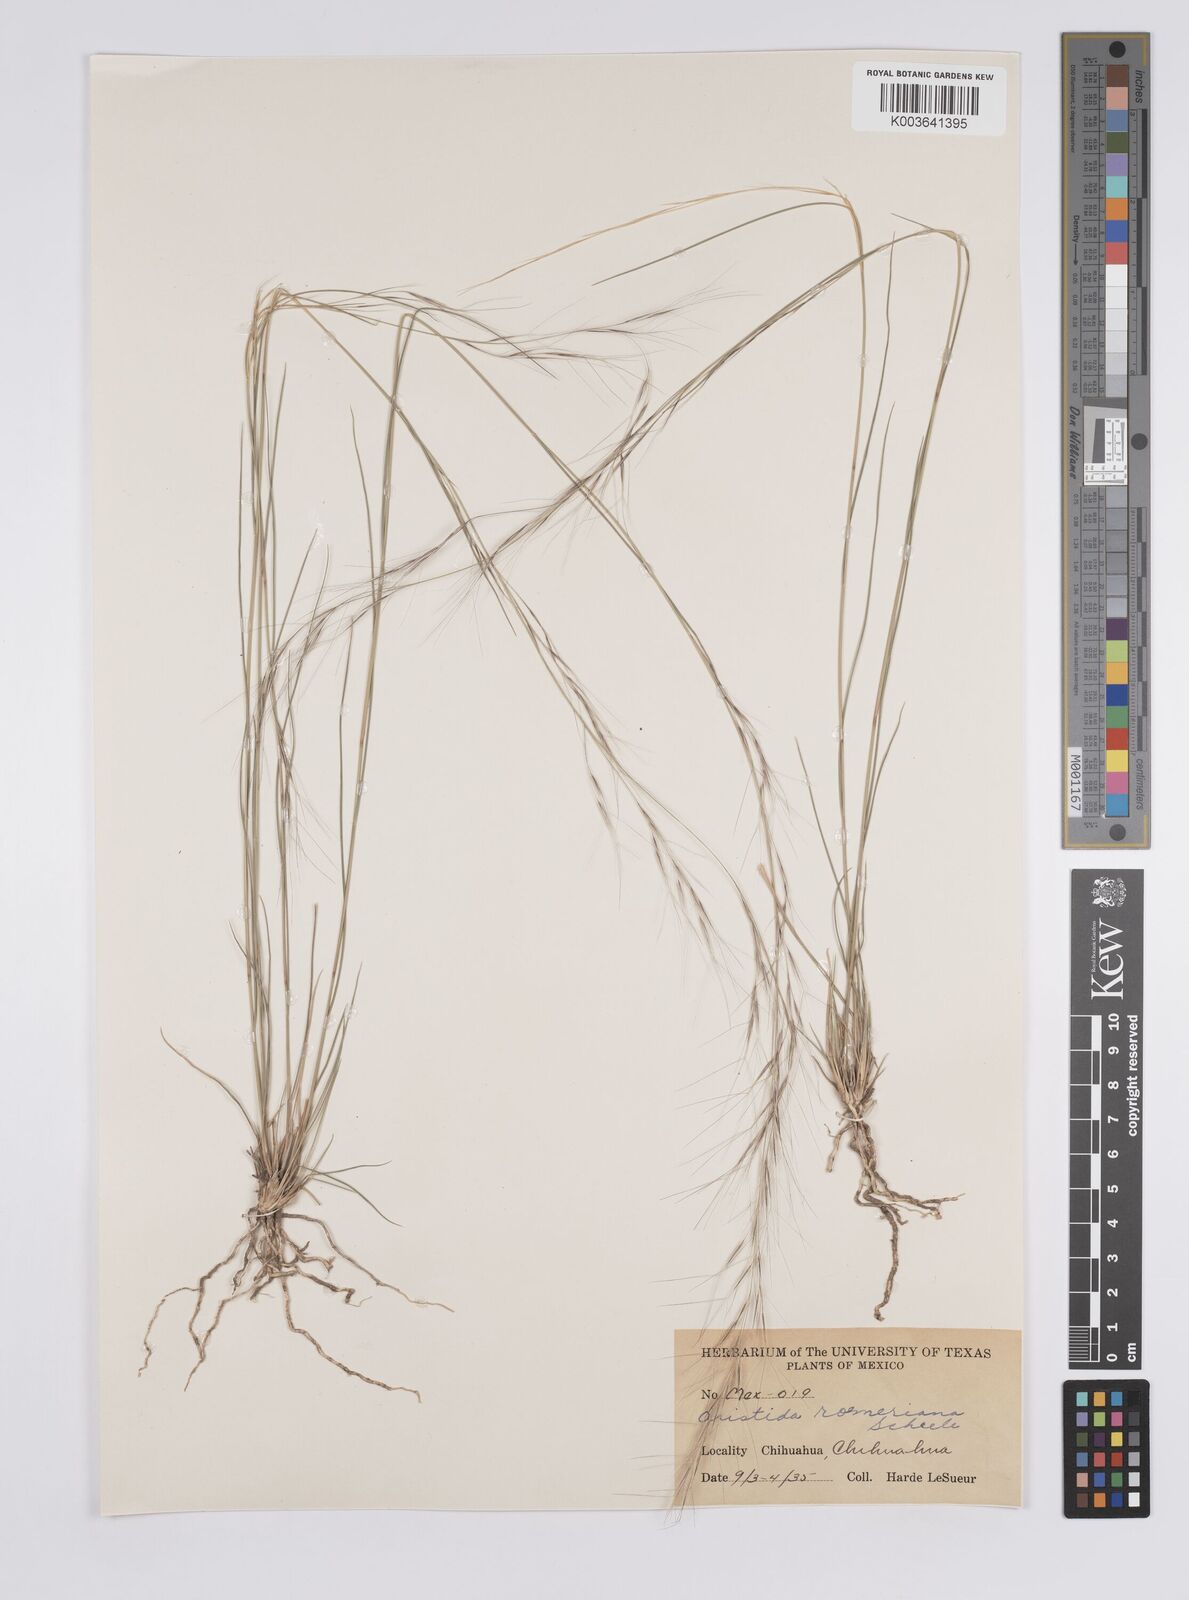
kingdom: Plantae
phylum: Tracheophyta
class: Liliopsida
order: Poales
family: Poaceae
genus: Aristida
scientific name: Aristida purpurea
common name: Purple threeawn
